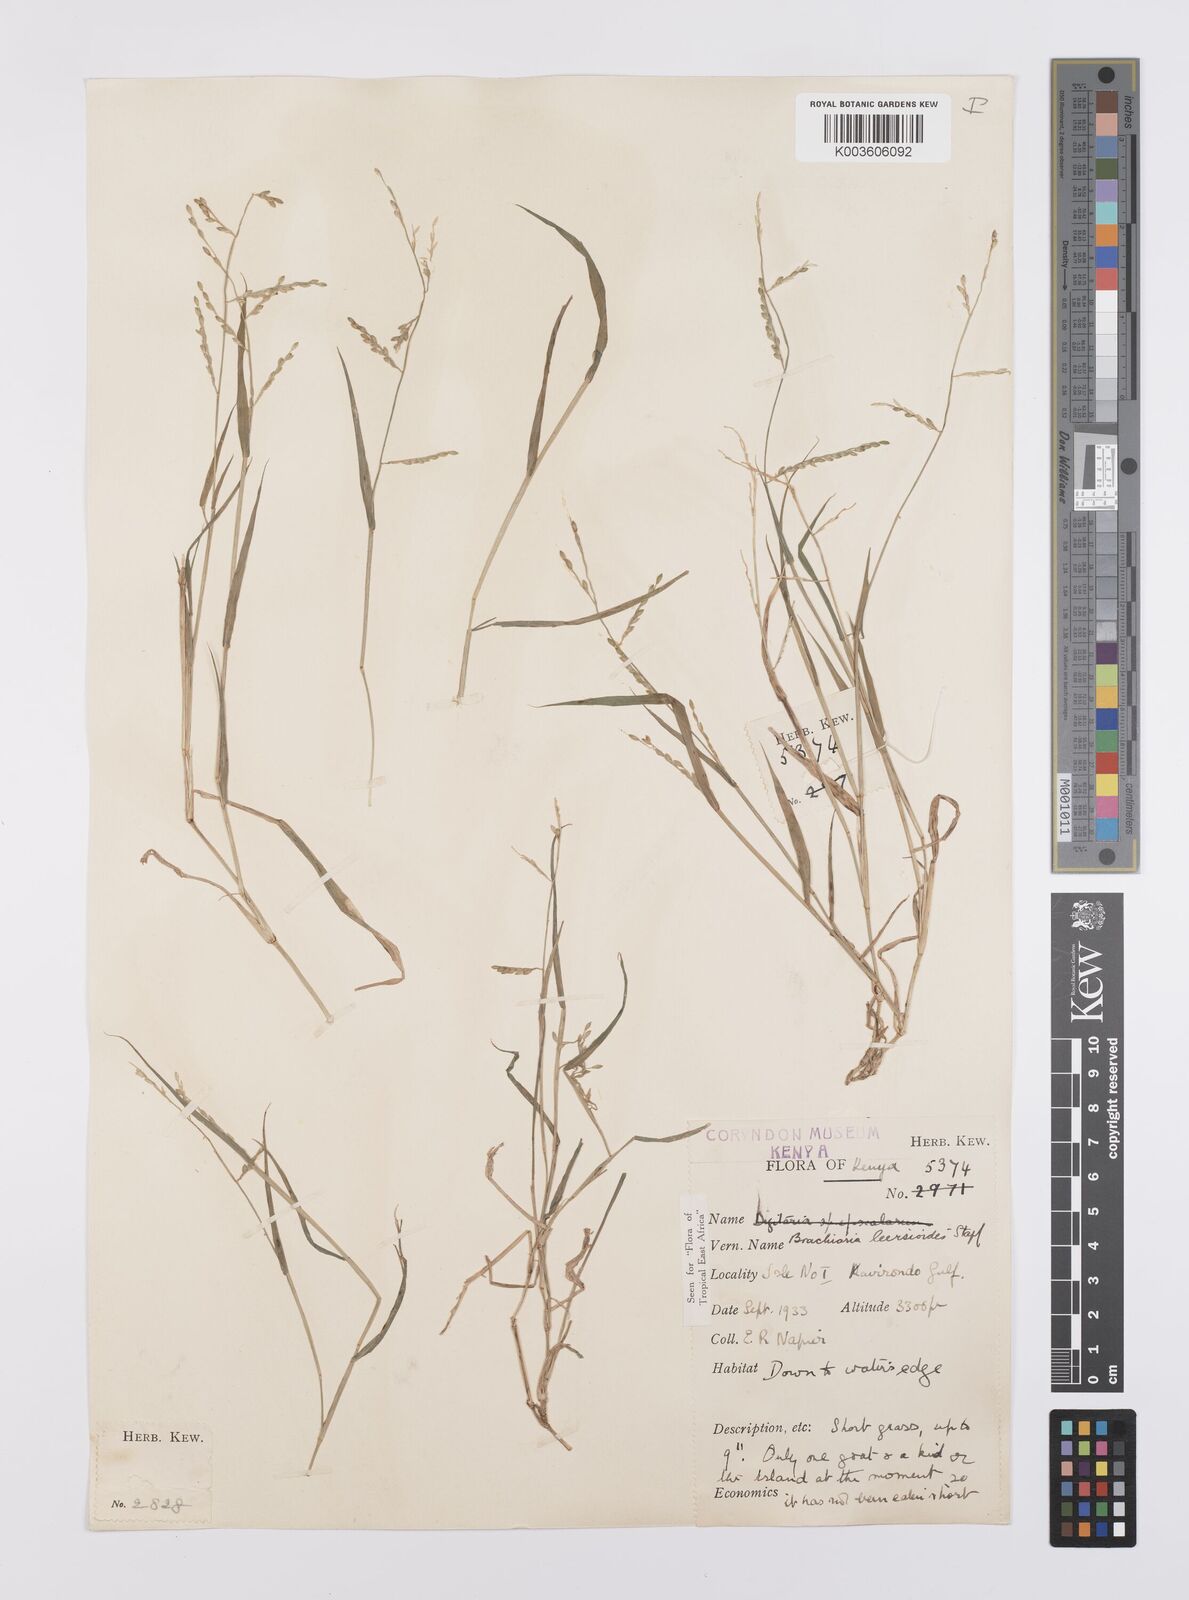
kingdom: Plantae
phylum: Tracheophyta
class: Liliopsida
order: Poales
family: Poaceae
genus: Urochloa
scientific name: Urochloa leersioides
